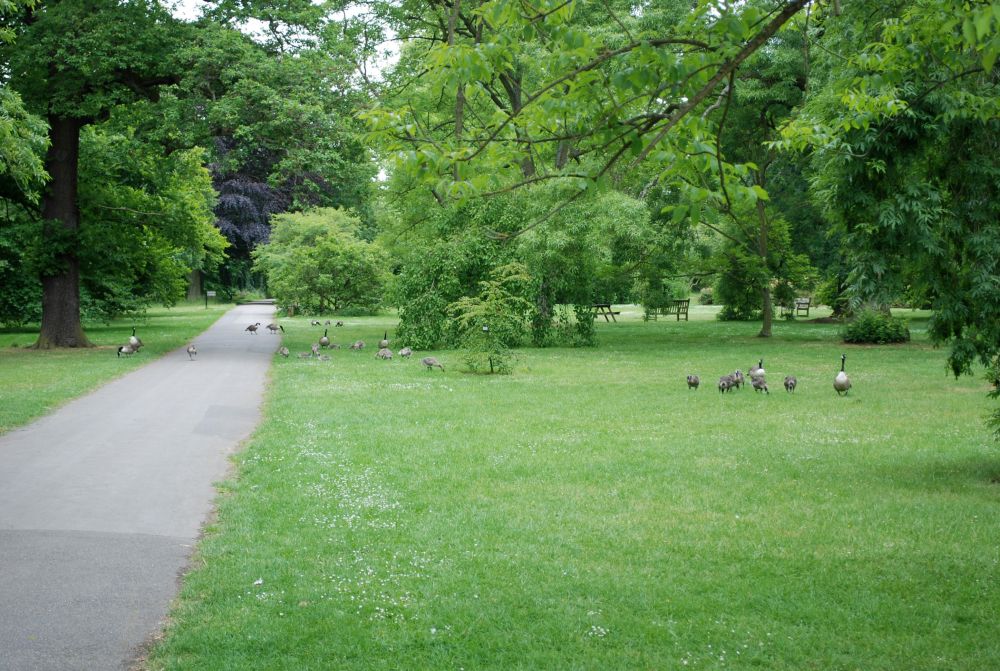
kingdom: Animalia
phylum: Chordata
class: Aves
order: Anseriformes
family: Anatidae
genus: Branta
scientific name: Branta canadensis
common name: Canada goose
